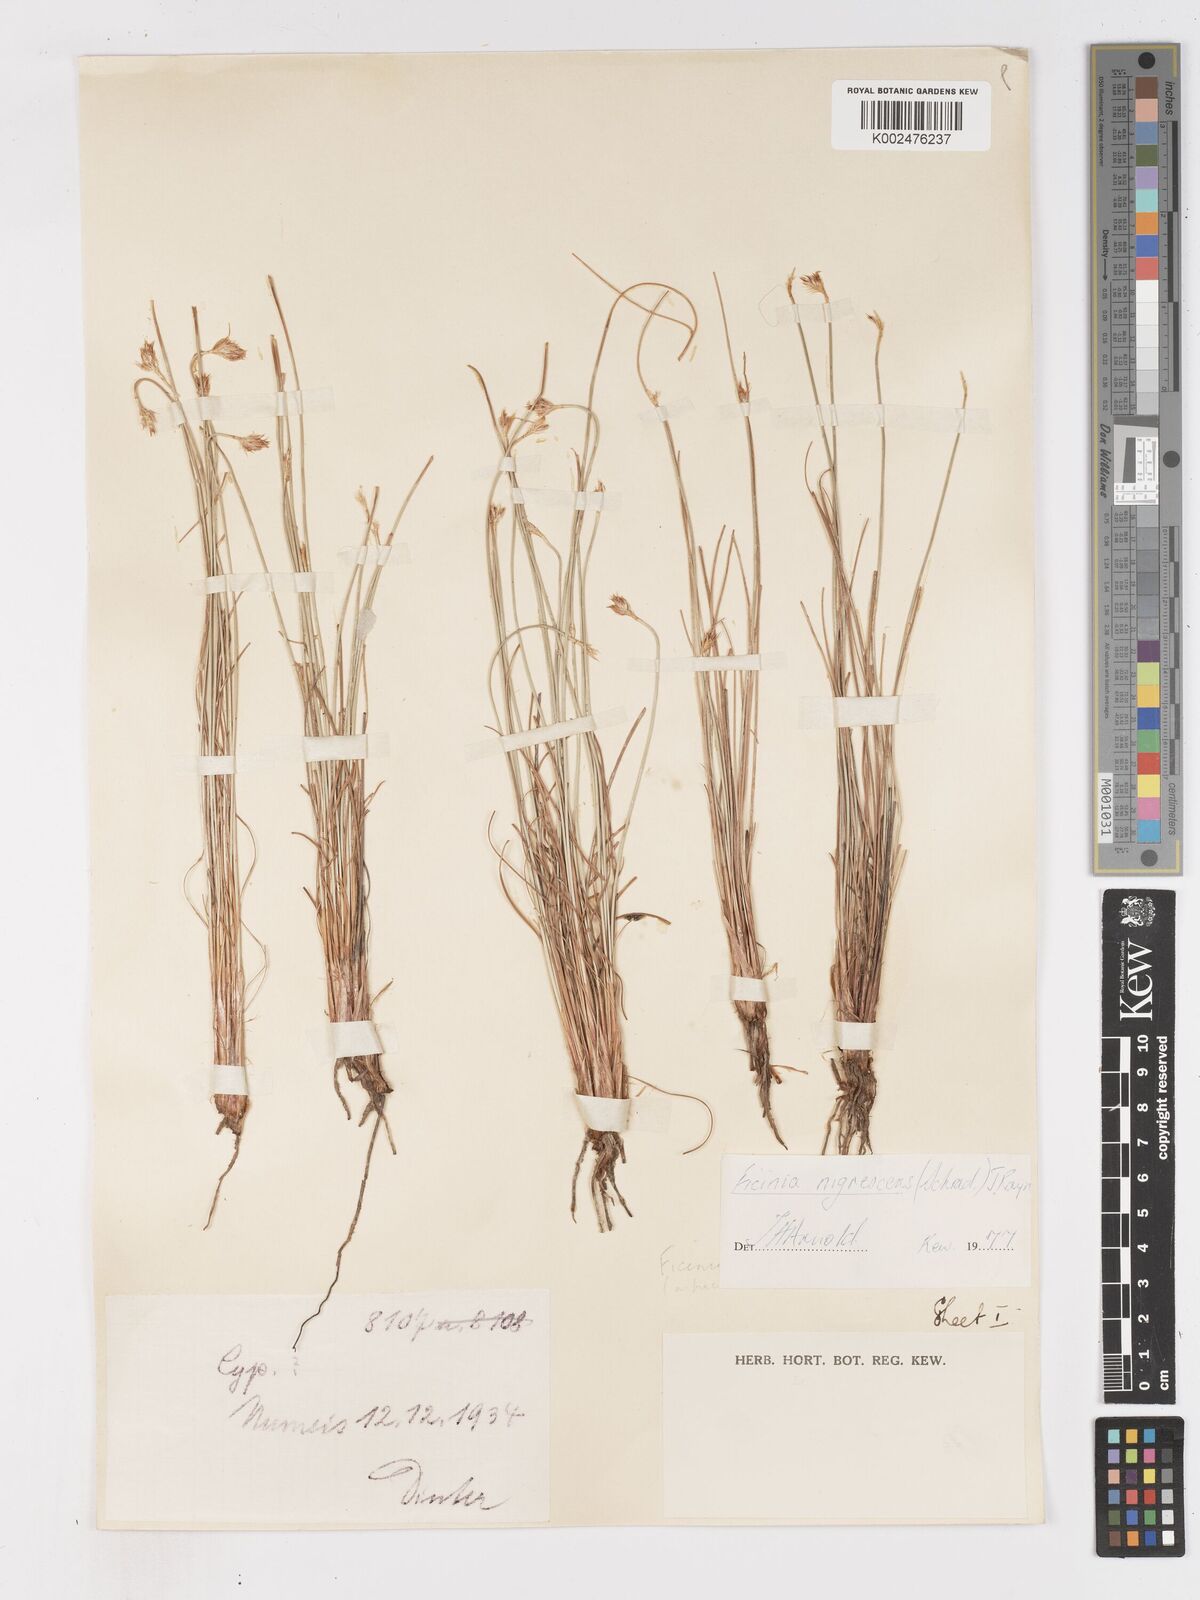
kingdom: Plantae
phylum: Tracheophyta
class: Liliopsida
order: Poales
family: Cyperaceae
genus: Ficinia
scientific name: Ficinia nigrescens
